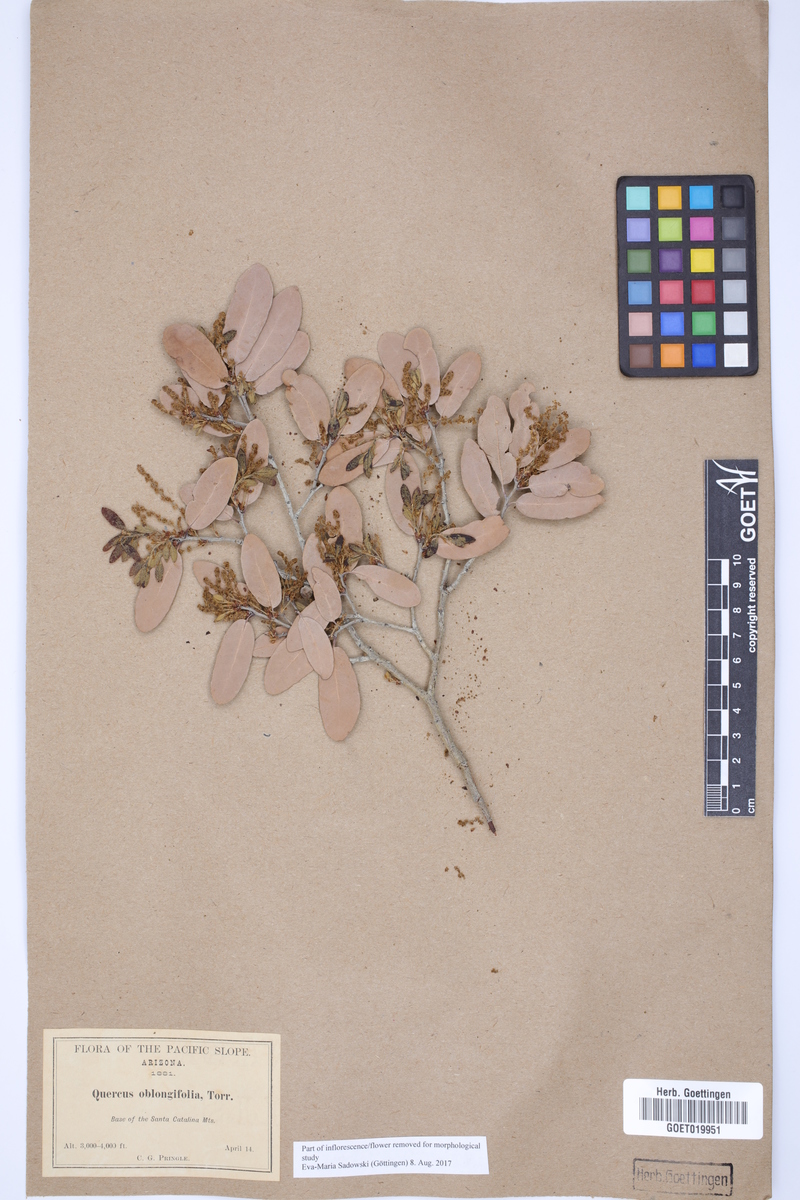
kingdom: Plantae
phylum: Tracheophyta
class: Magnoliopsida
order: Fagales
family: Fagaceae
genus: Quercus
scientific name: Quercus oblongifolia
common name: Mexican blue oak
